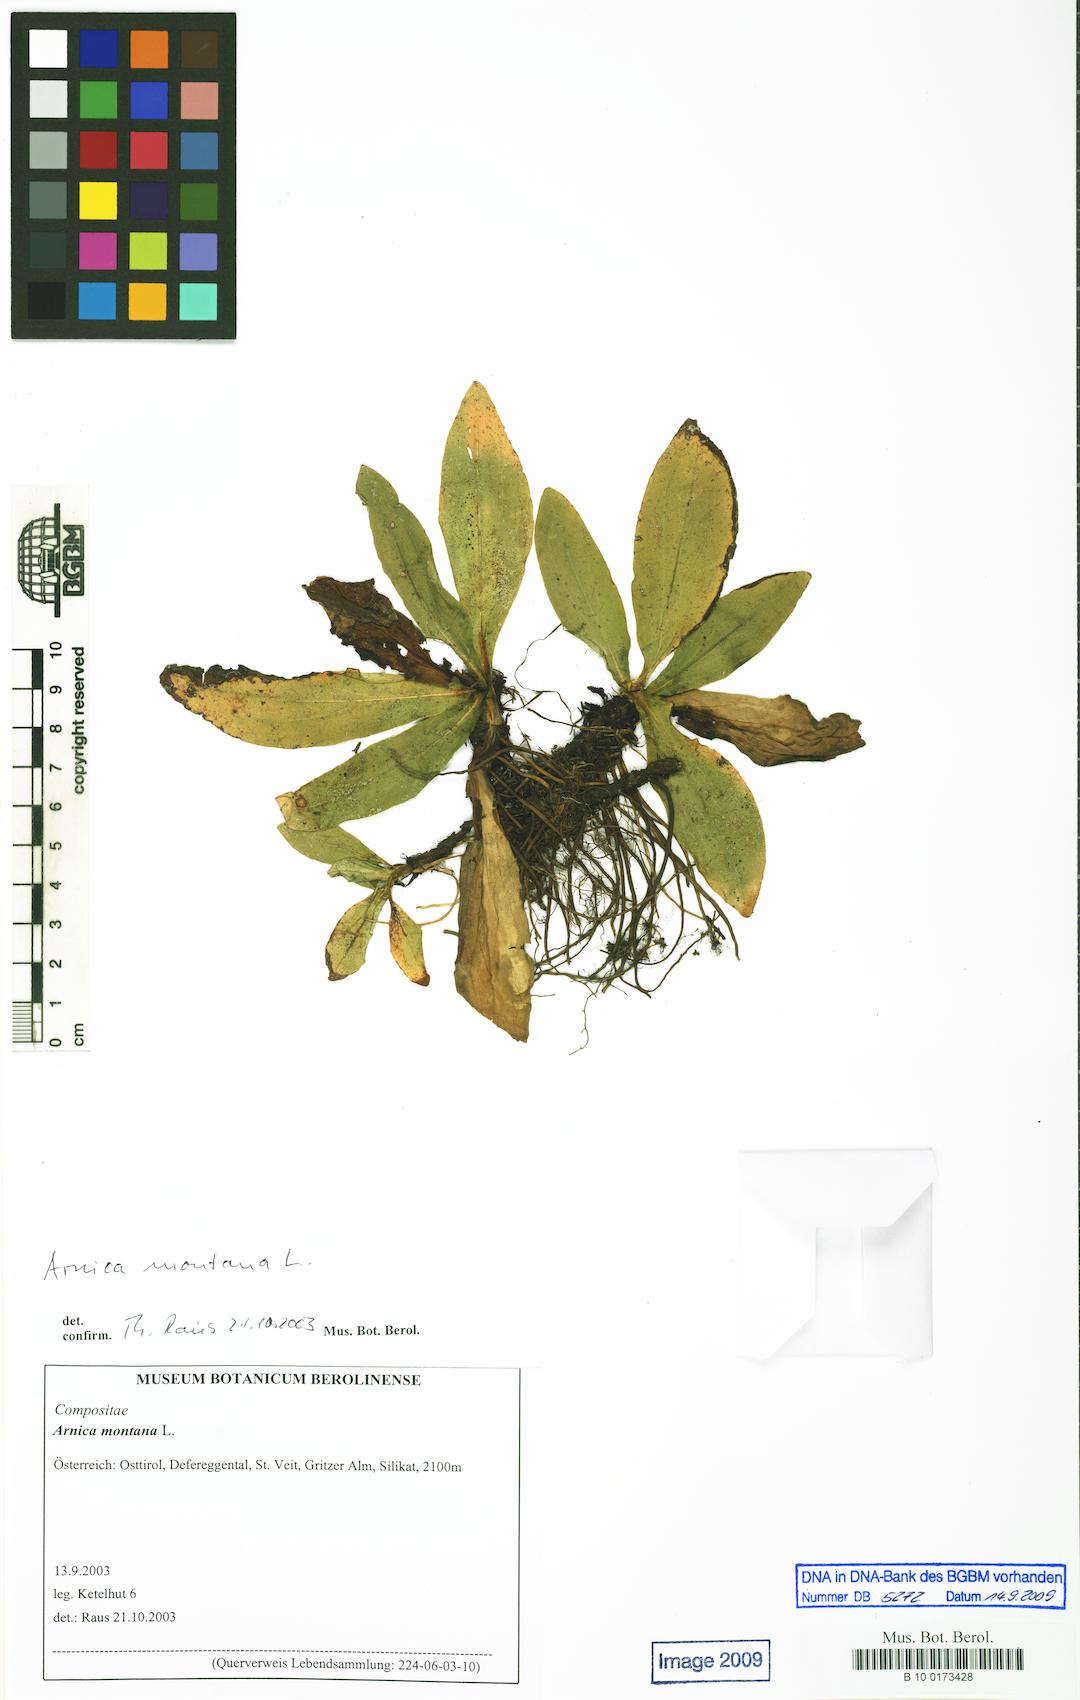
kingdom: Plantae
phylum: Tracheophyta
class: Magnoliopsida
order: Asterales
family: Asteraceae
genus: Arnica
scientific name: Arnica montana
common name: Leopard's bane
